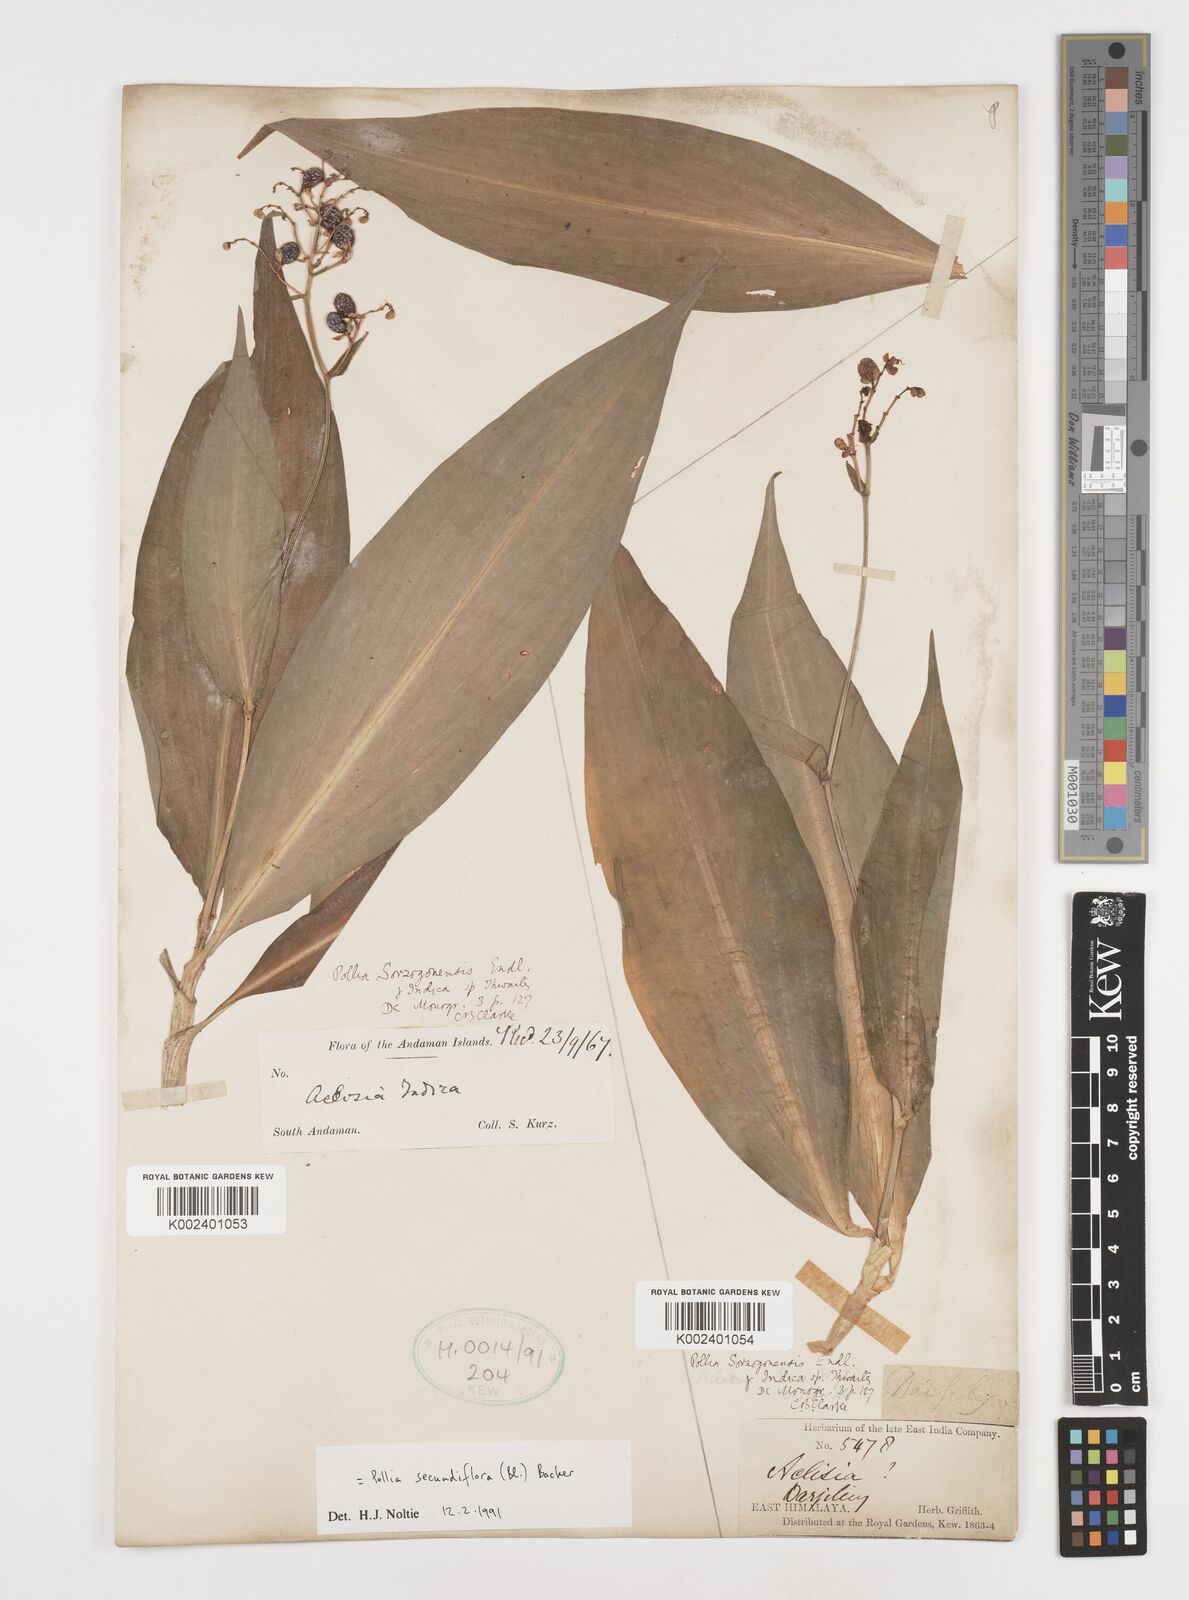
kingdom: Plantae
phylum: Tracheophyta
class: Liliopsida
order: Commelinales
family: Commelinaceae
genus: Pollia
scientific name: Pollia secundiflora
